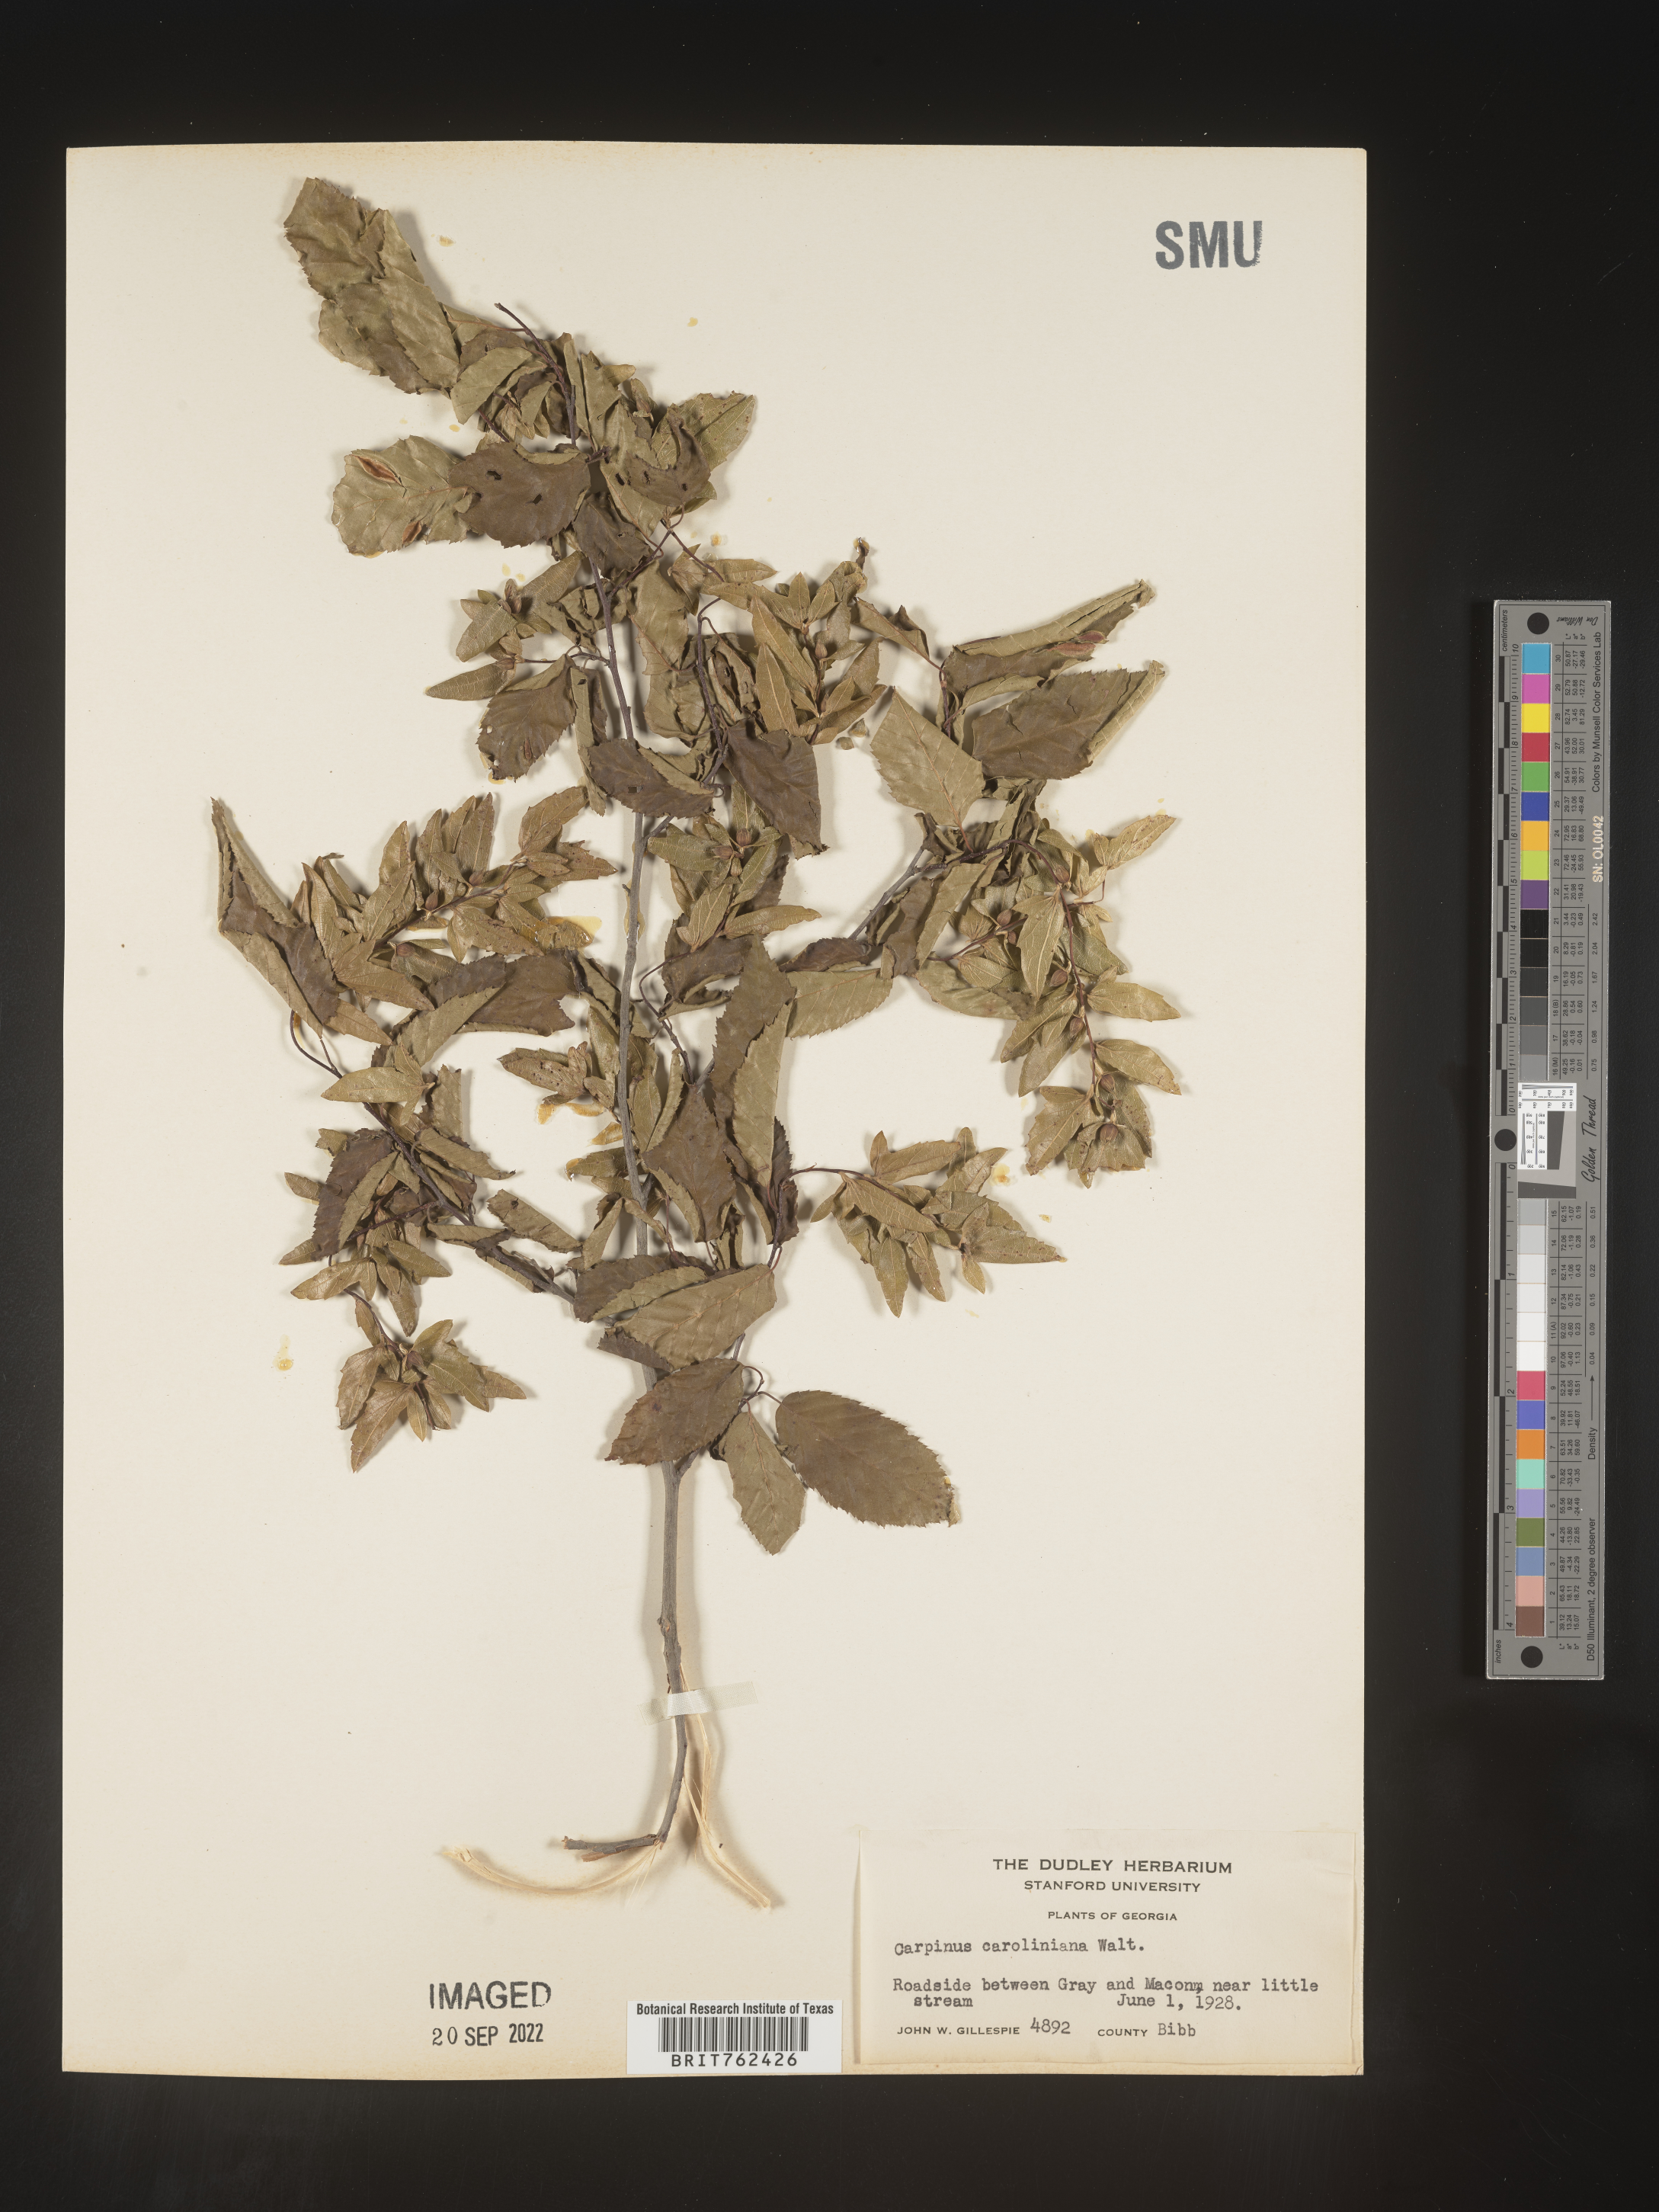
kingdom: Plantae
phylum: Tracheophyta
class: Magnoliopsida
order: Fagales
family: Betulaceae
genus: Carpinus
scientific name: Carpinus caroliniana
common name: American hornbeam
